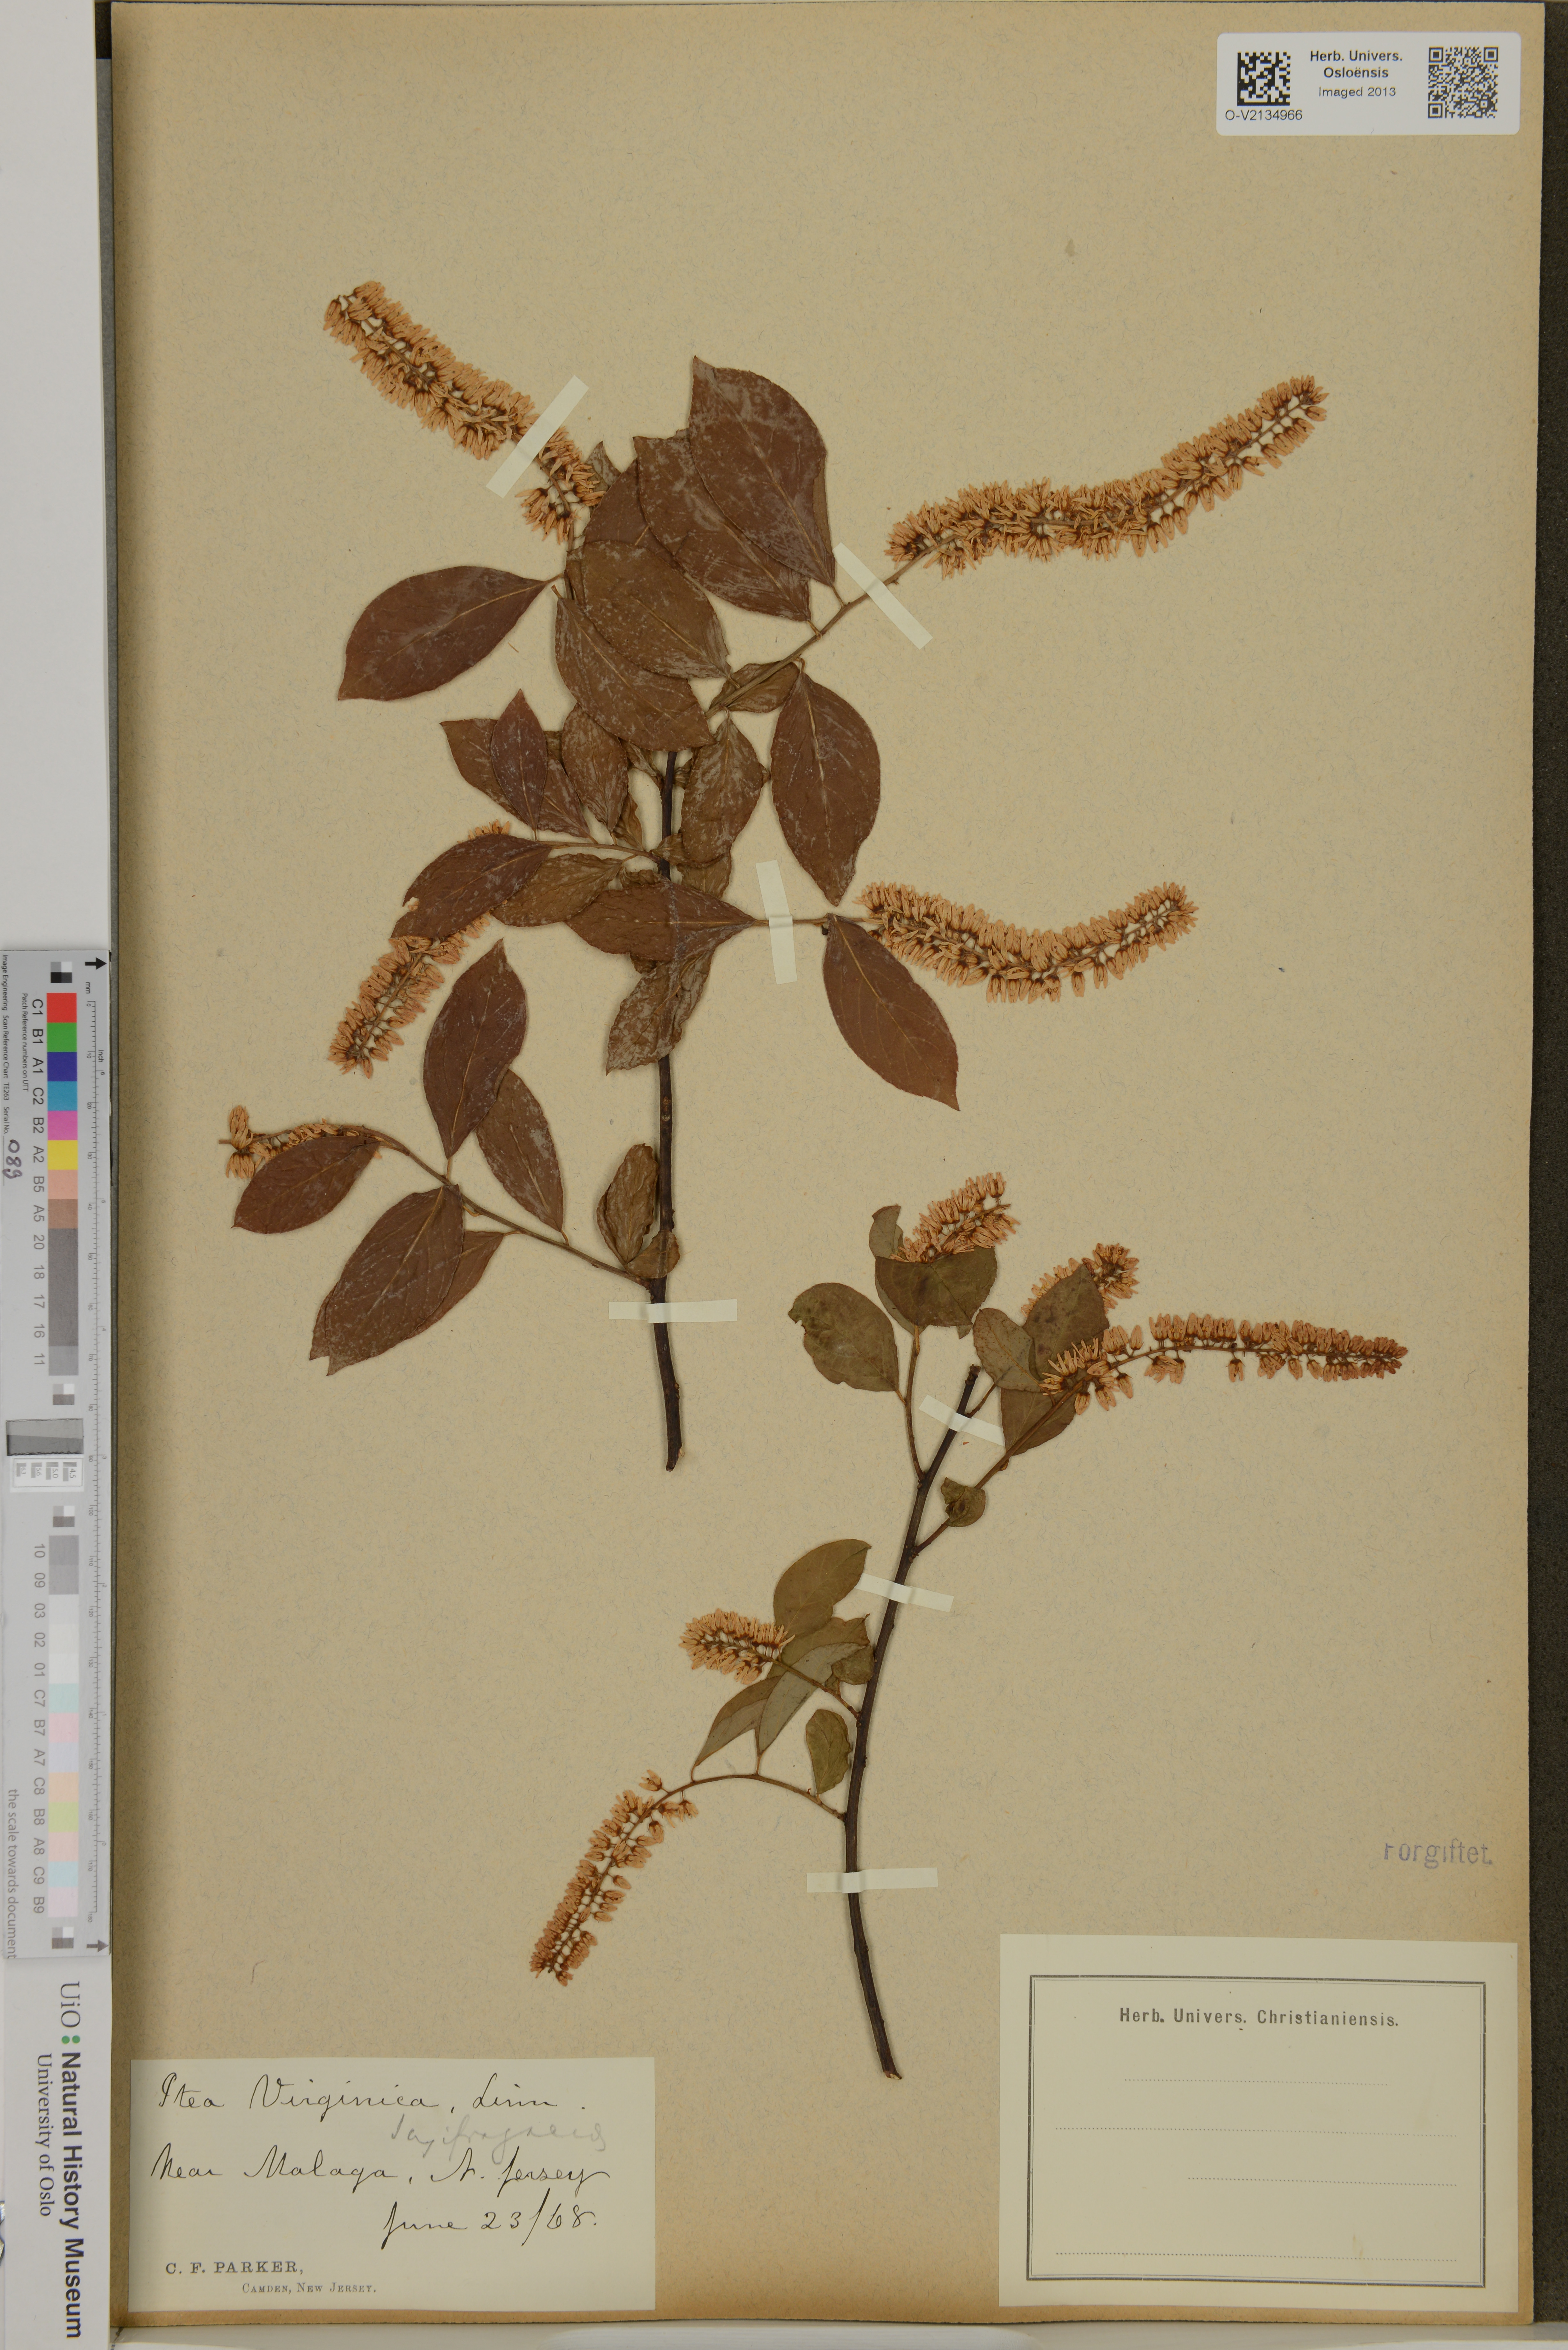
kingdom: Plantae
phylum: Tracheophyta
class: Magnoliopsida
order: Saxifragales
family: Iteaceae
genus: Itea
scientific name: Itea virginica
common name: Sweetspire
